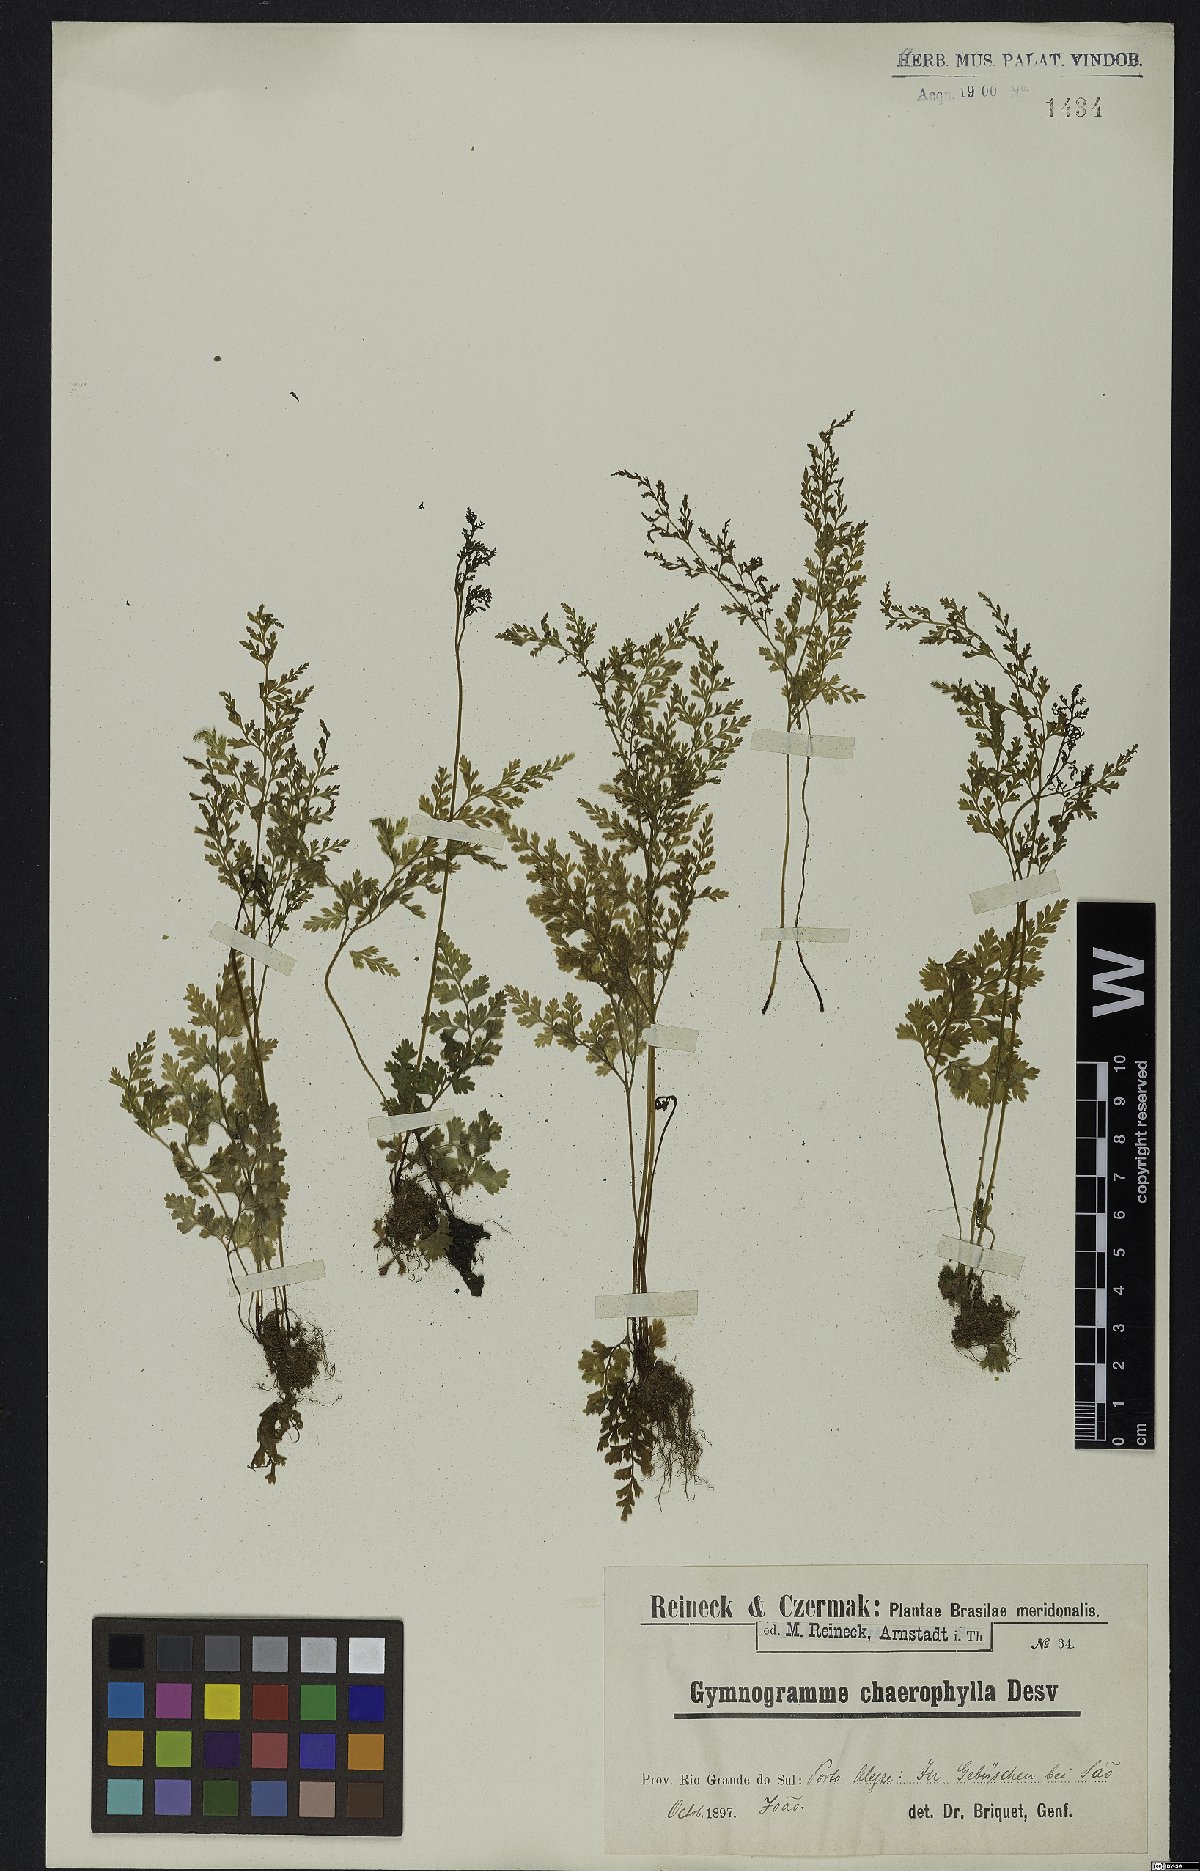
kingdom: Plantae
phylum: Tracheophyta
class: Polypodiopsida
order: Polypodiales
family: Pteridaceae
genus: Gastoniella
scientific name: Gastoniella chaerophylla
